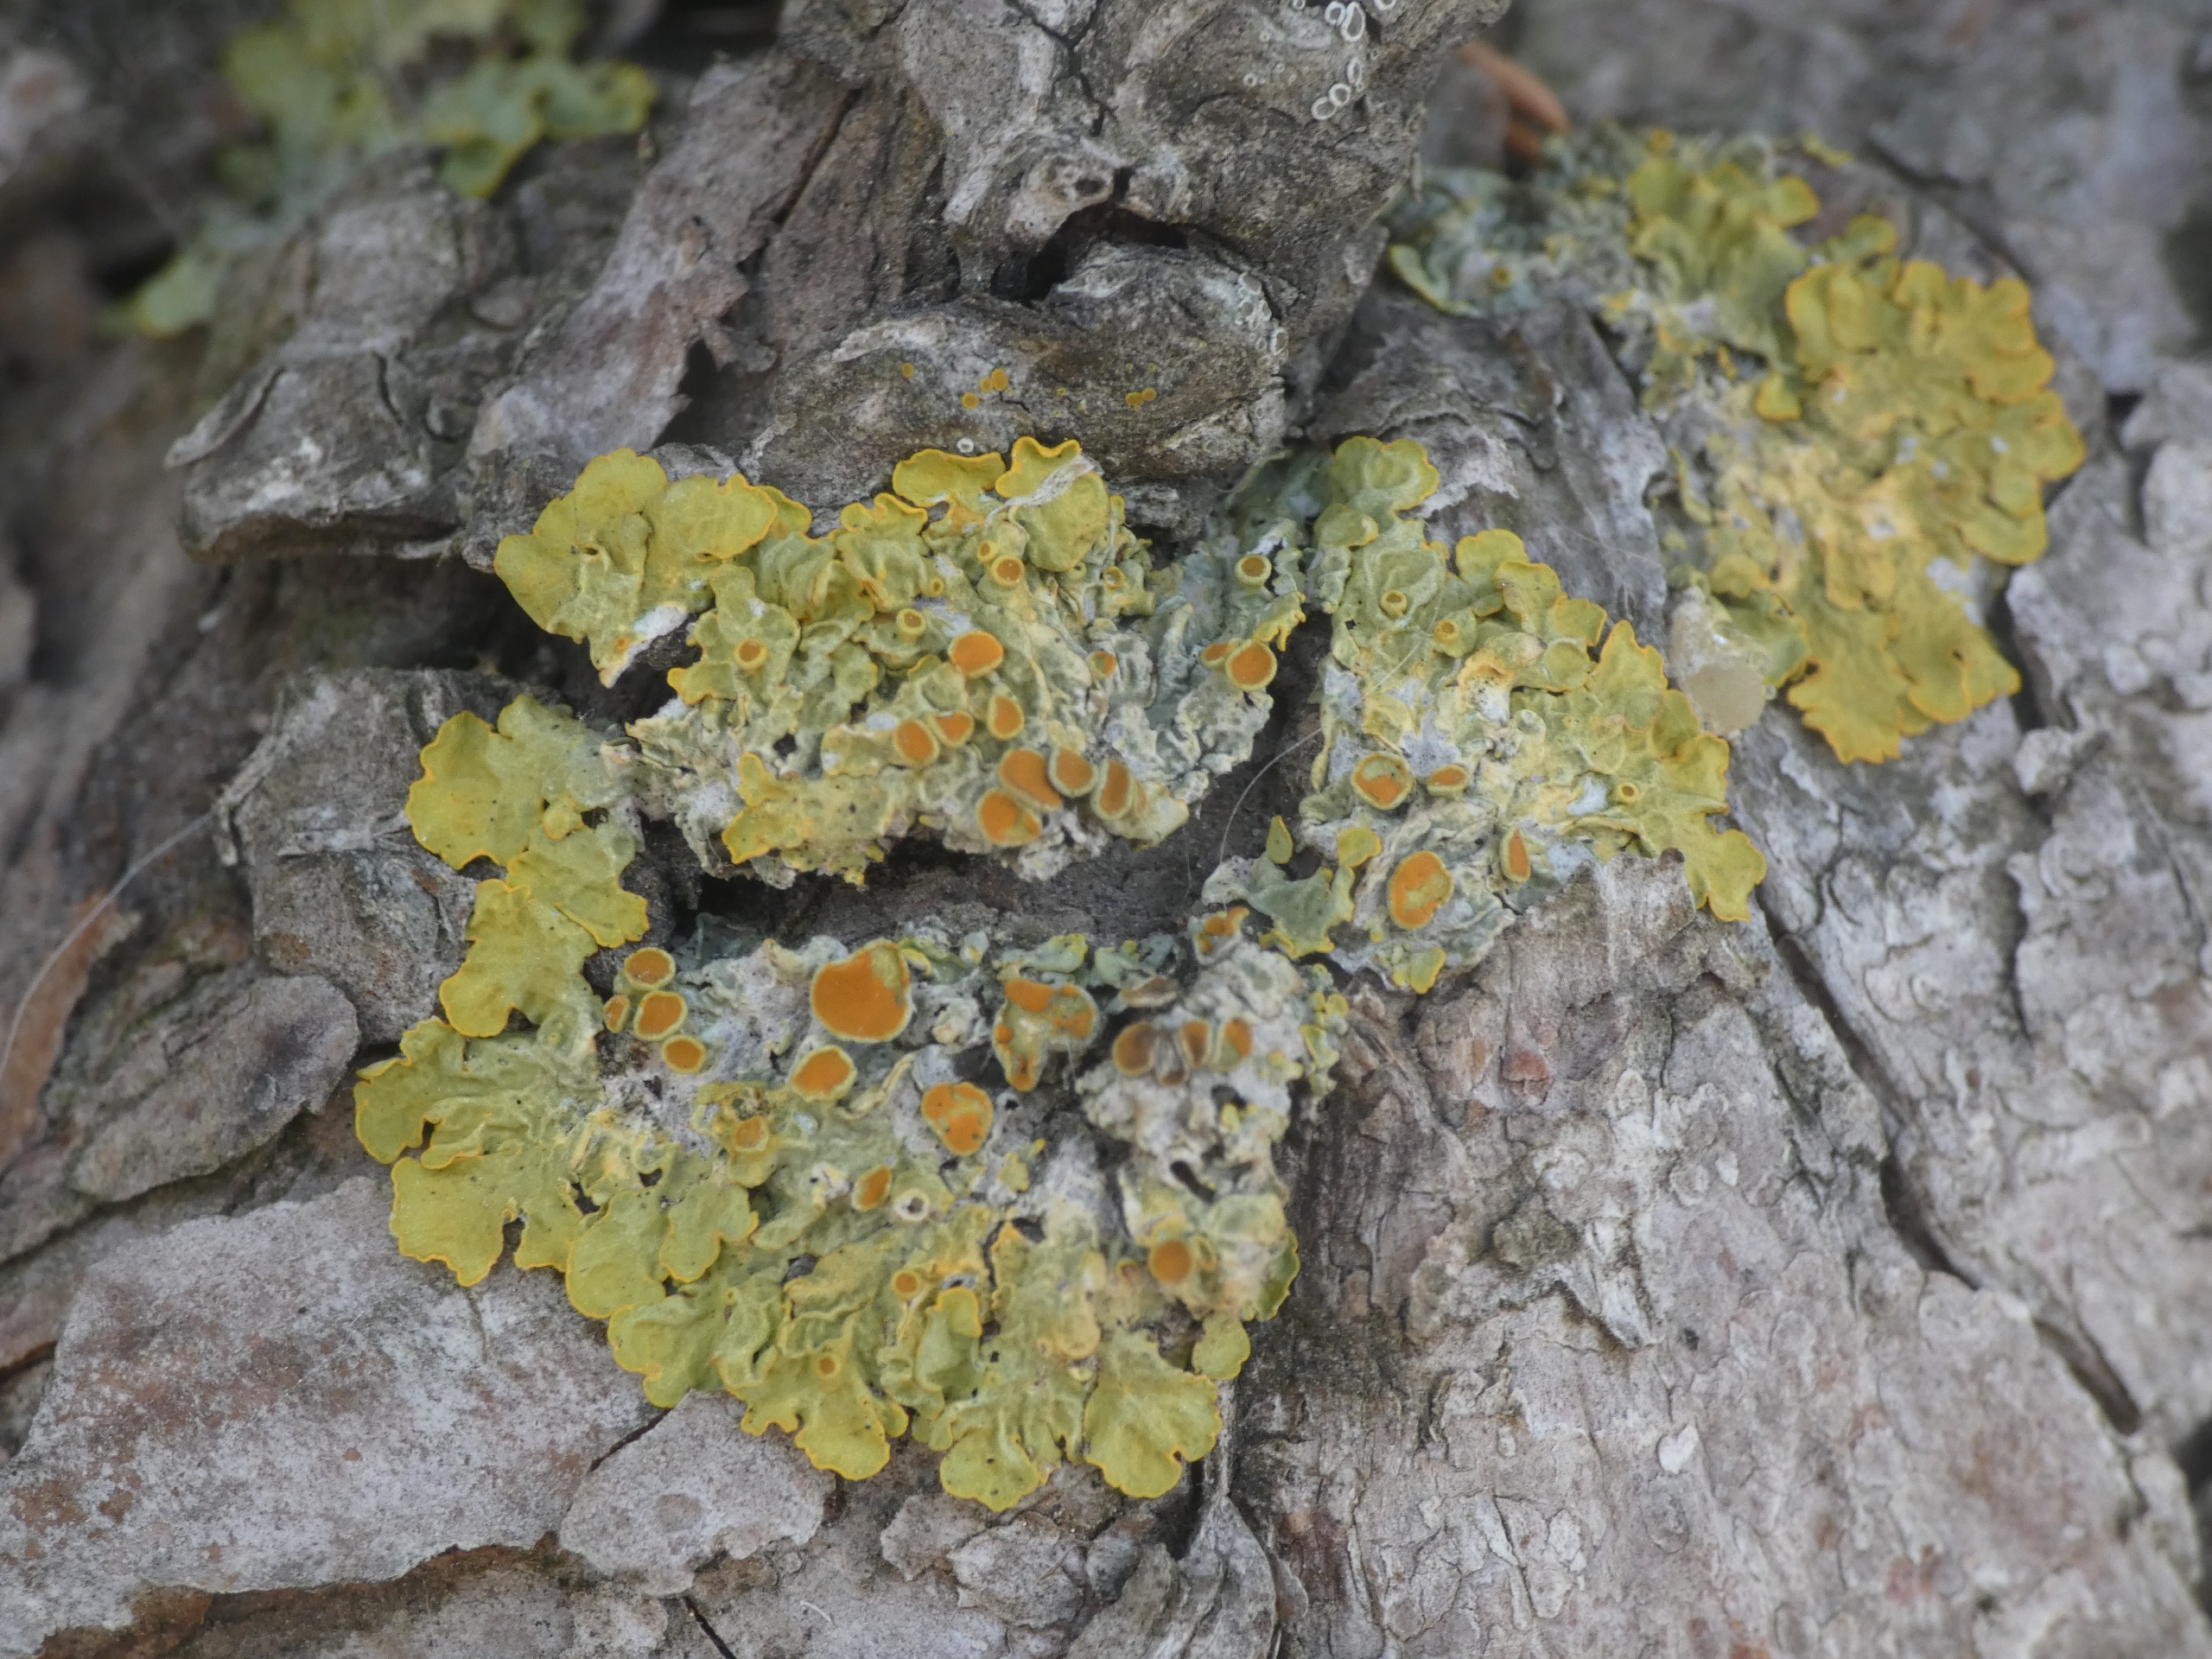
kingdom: Fungi
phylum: Ascomycota
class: Lecanoromycetes
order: Teloschistales
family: Teloschistaceae
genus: Xanthoria
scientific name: Xanthoria parietina
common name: Almindelig væggelav
